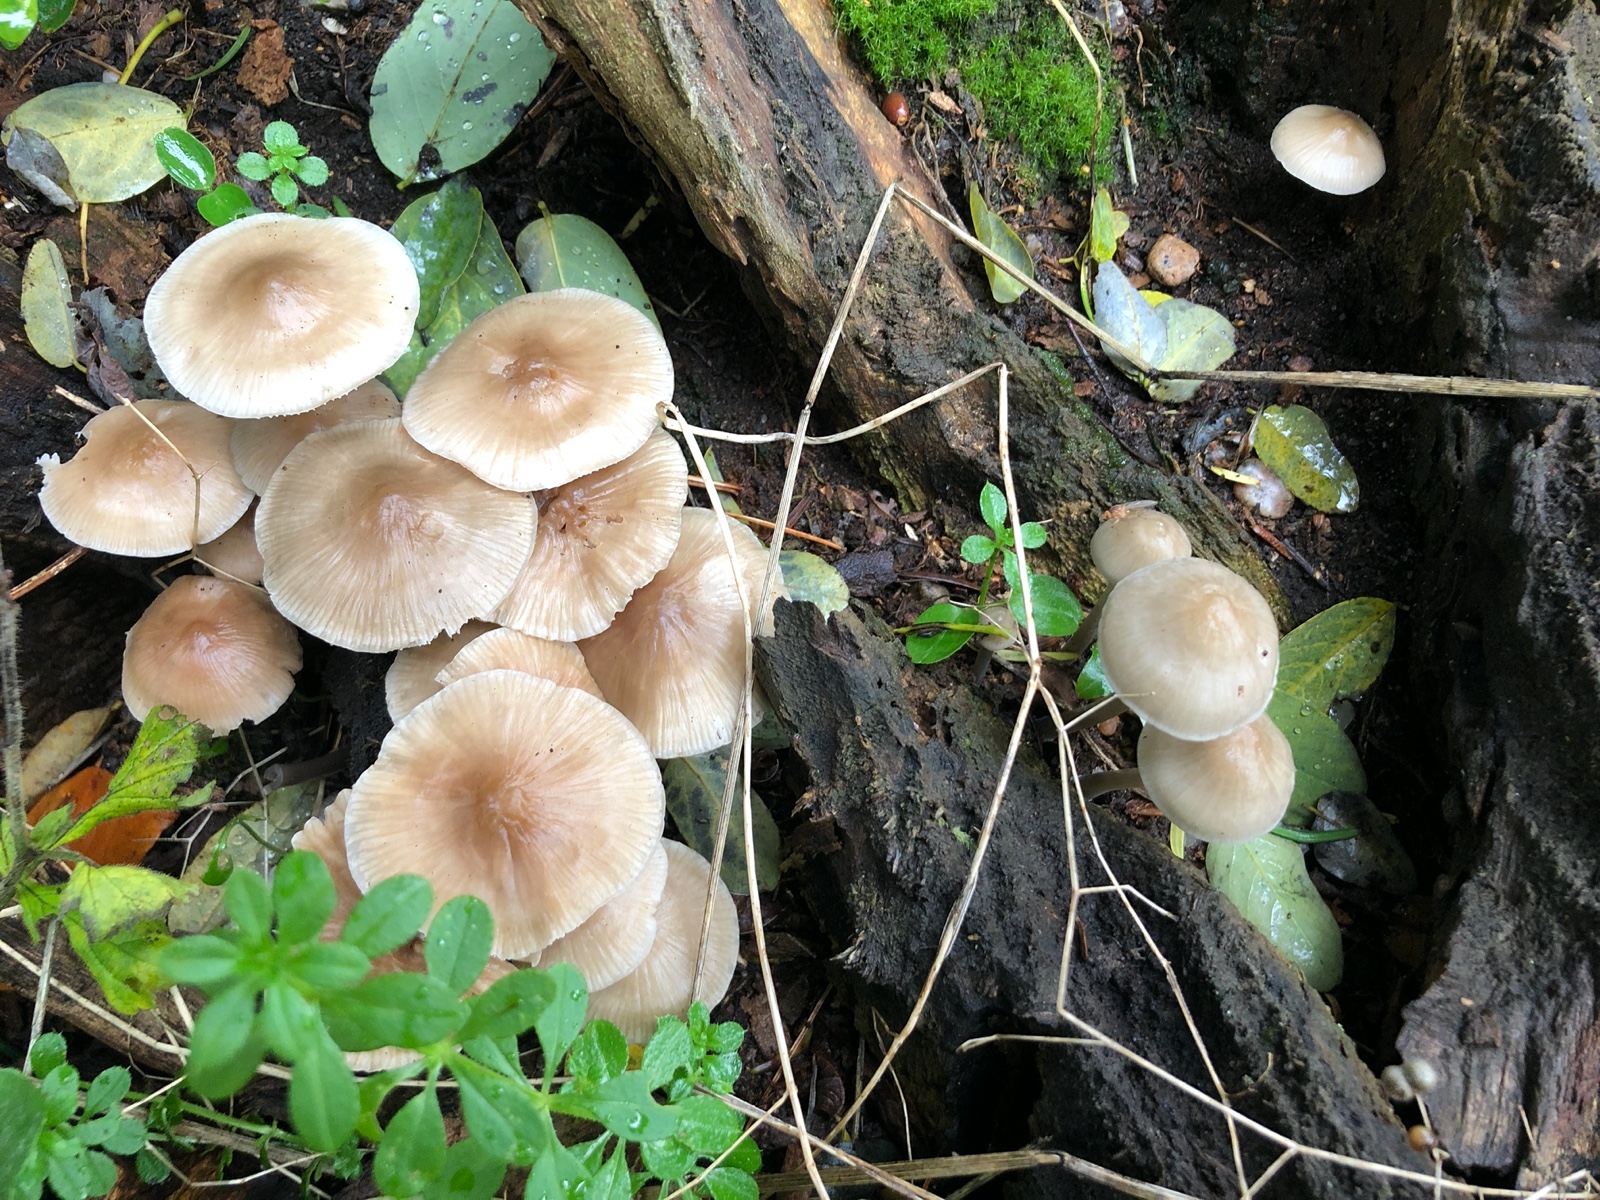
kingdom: Fungi
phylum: Basidiomycota
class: Agaricomycetes
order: Agaricales
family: Mycenaceae
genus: Mycena
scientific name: Mycena galericulata
